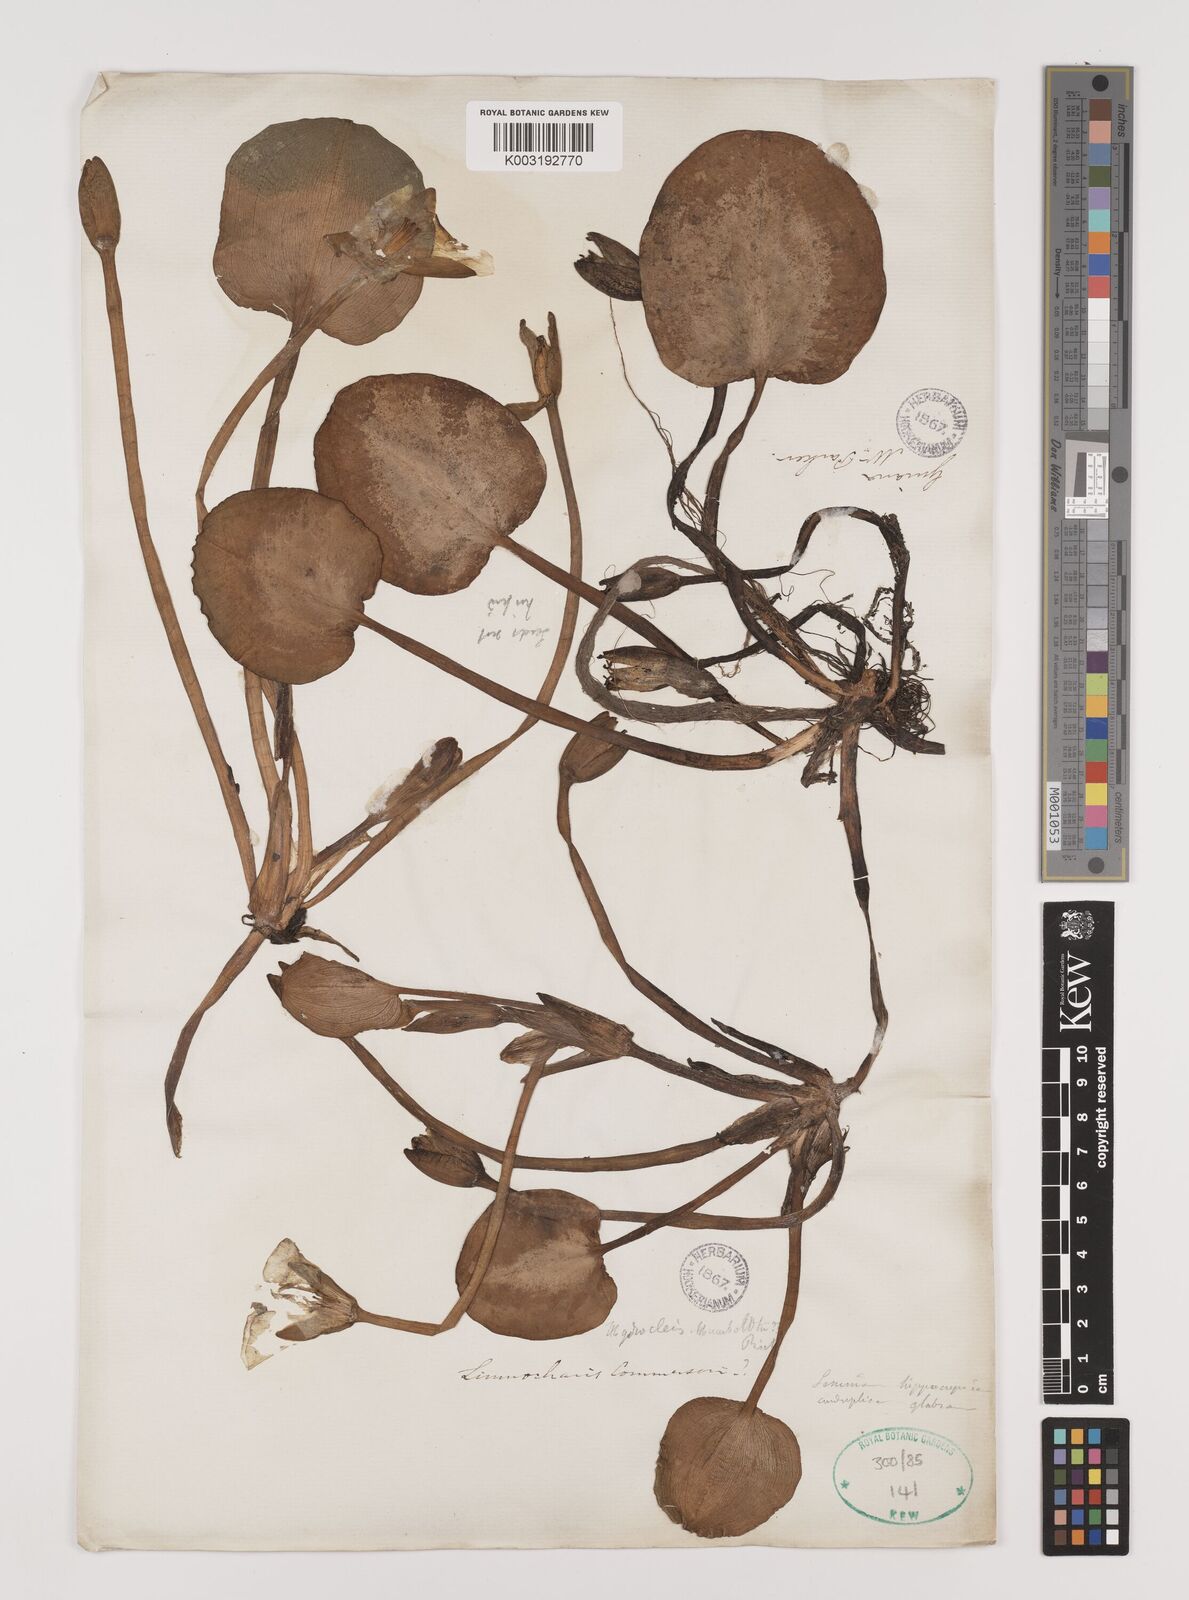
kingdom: Plantae
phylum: Tracheophyta
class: Liliopsida
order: Alismatales
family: Alismataceae
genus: Hydrocleys
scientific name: Hydrocleys nymphoides
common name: Water-poppy
